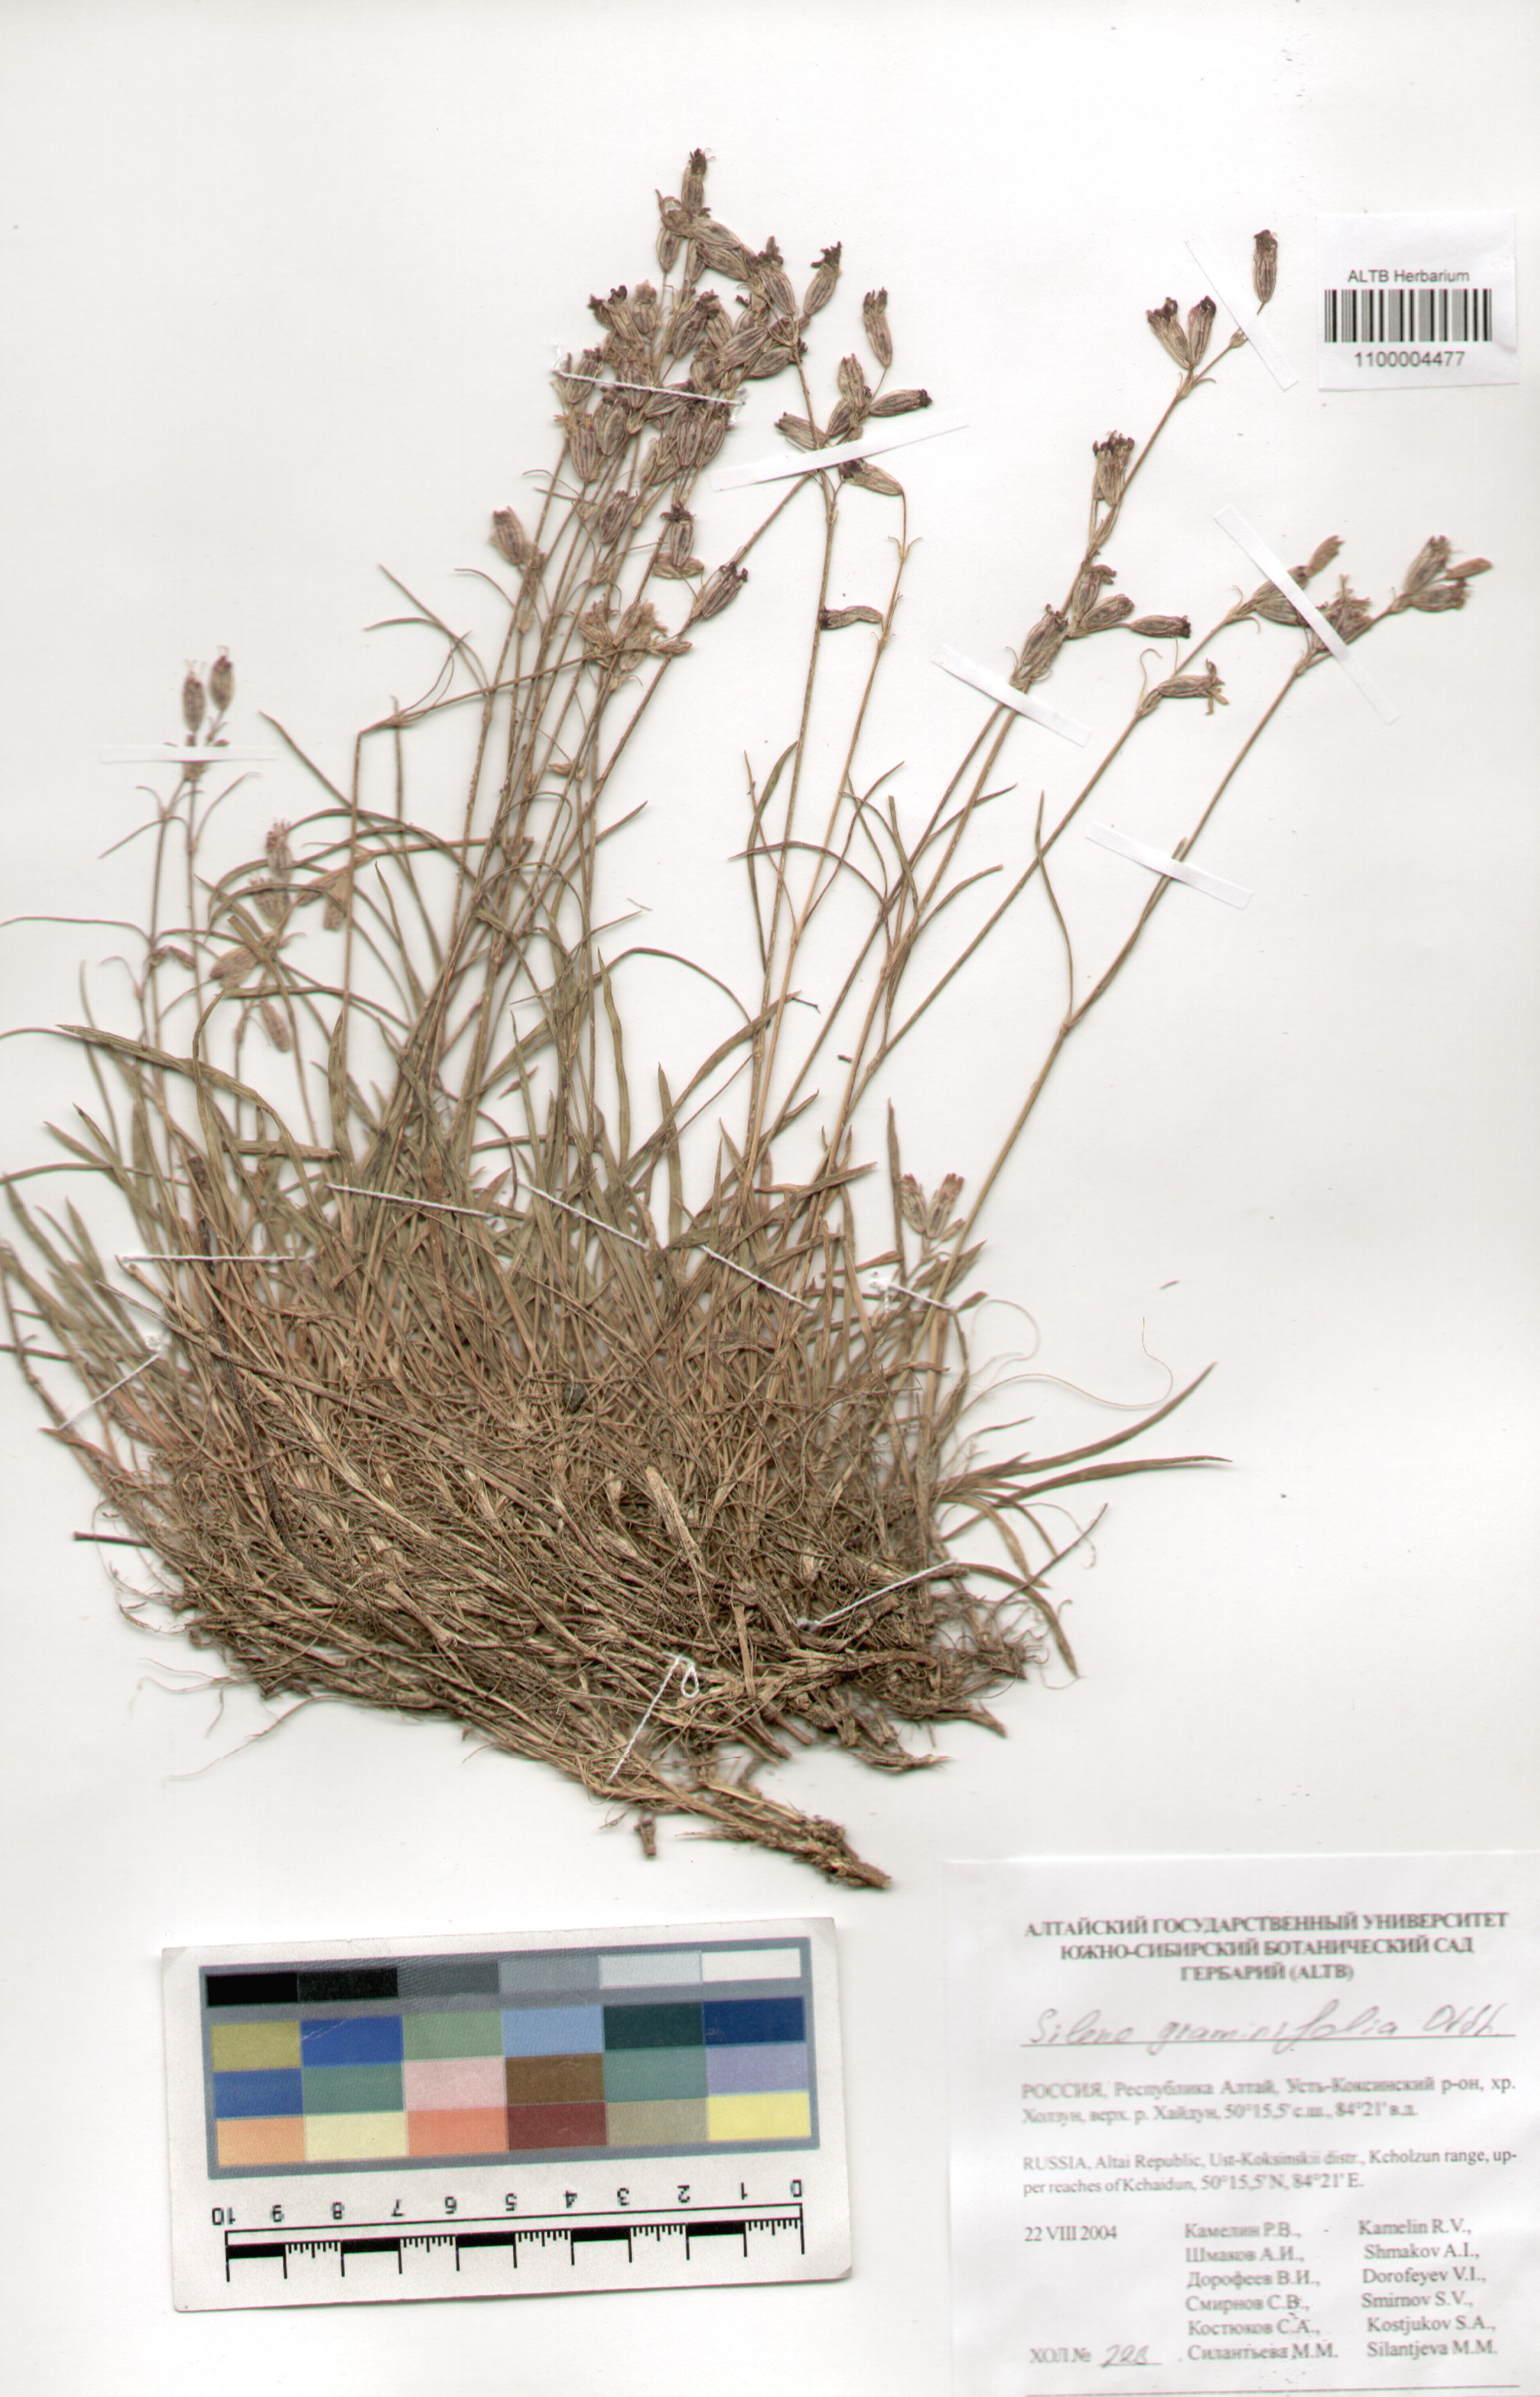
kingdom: Plantae
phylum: Tracheophyta
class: Magnoliopsida
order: Caryophyllales
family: Caryophyllaceae
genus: Silene
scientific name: Silene graminifolia
